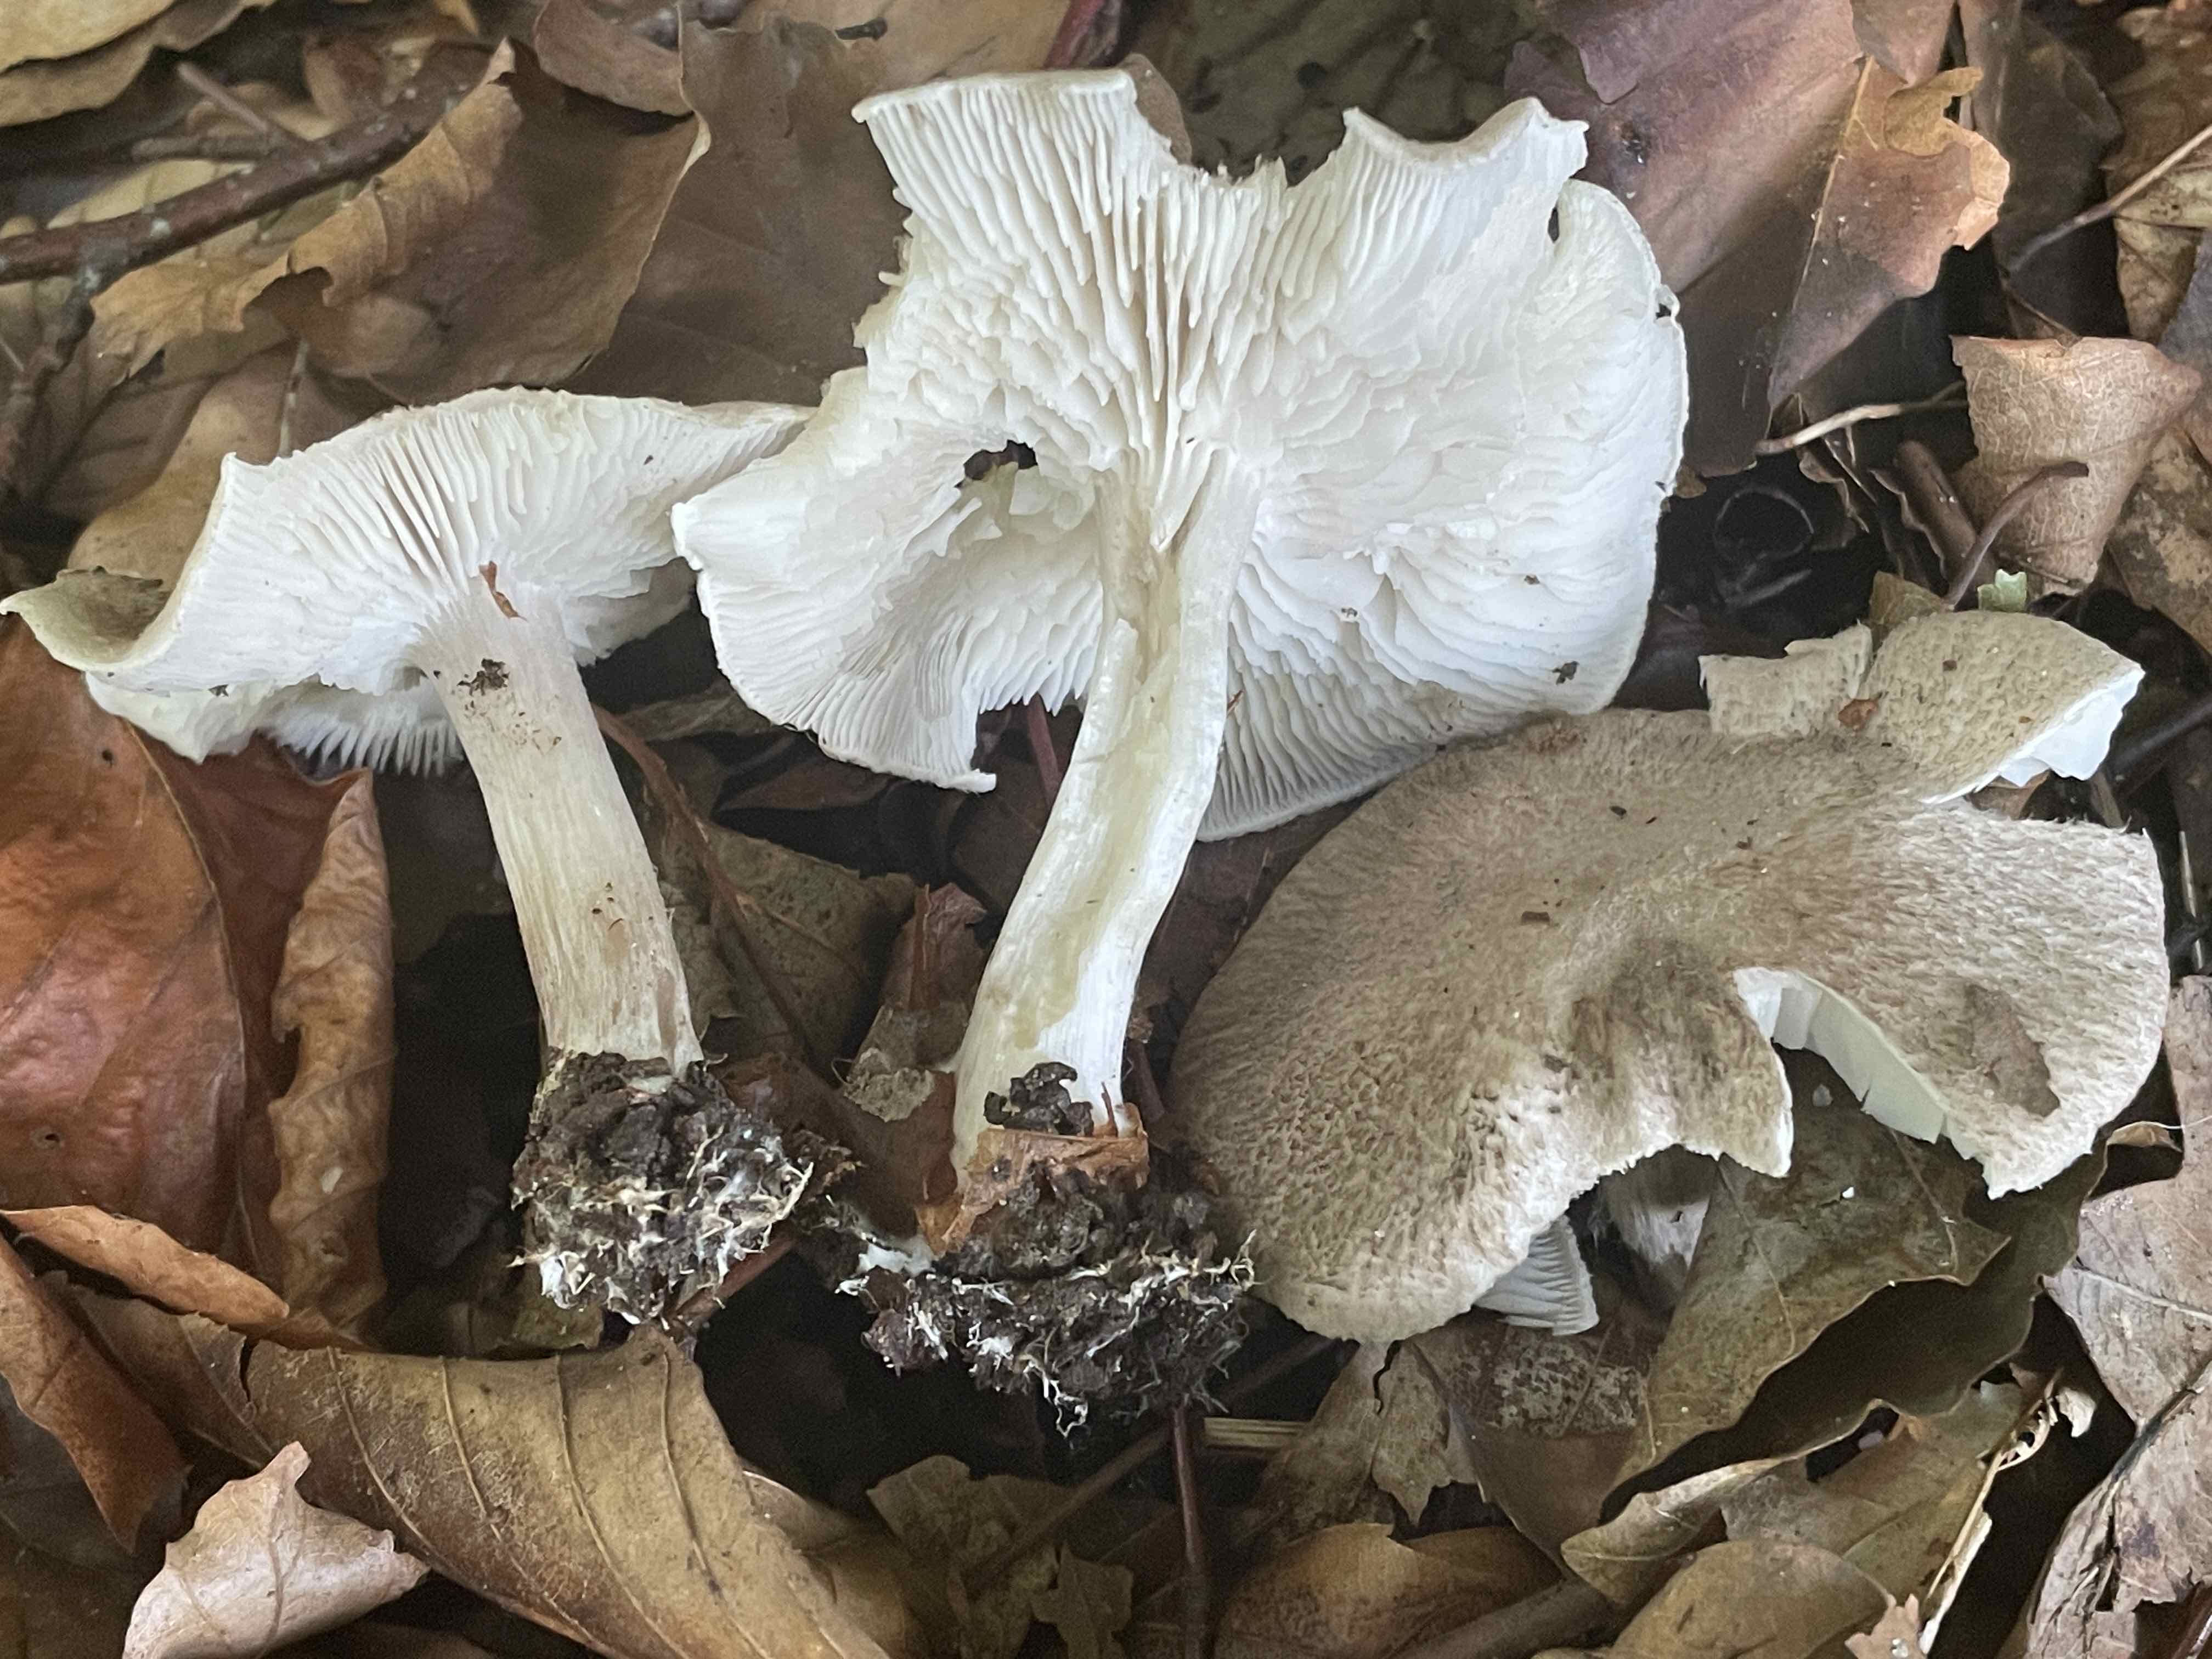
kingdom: Fungi
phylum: Basidiomycota
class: Agaricomycetes
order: Agaricales
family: Tricholomataceae
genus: Tricholoma
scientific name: Tricholoma scalpturatum
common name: gulplettet ridderhat
